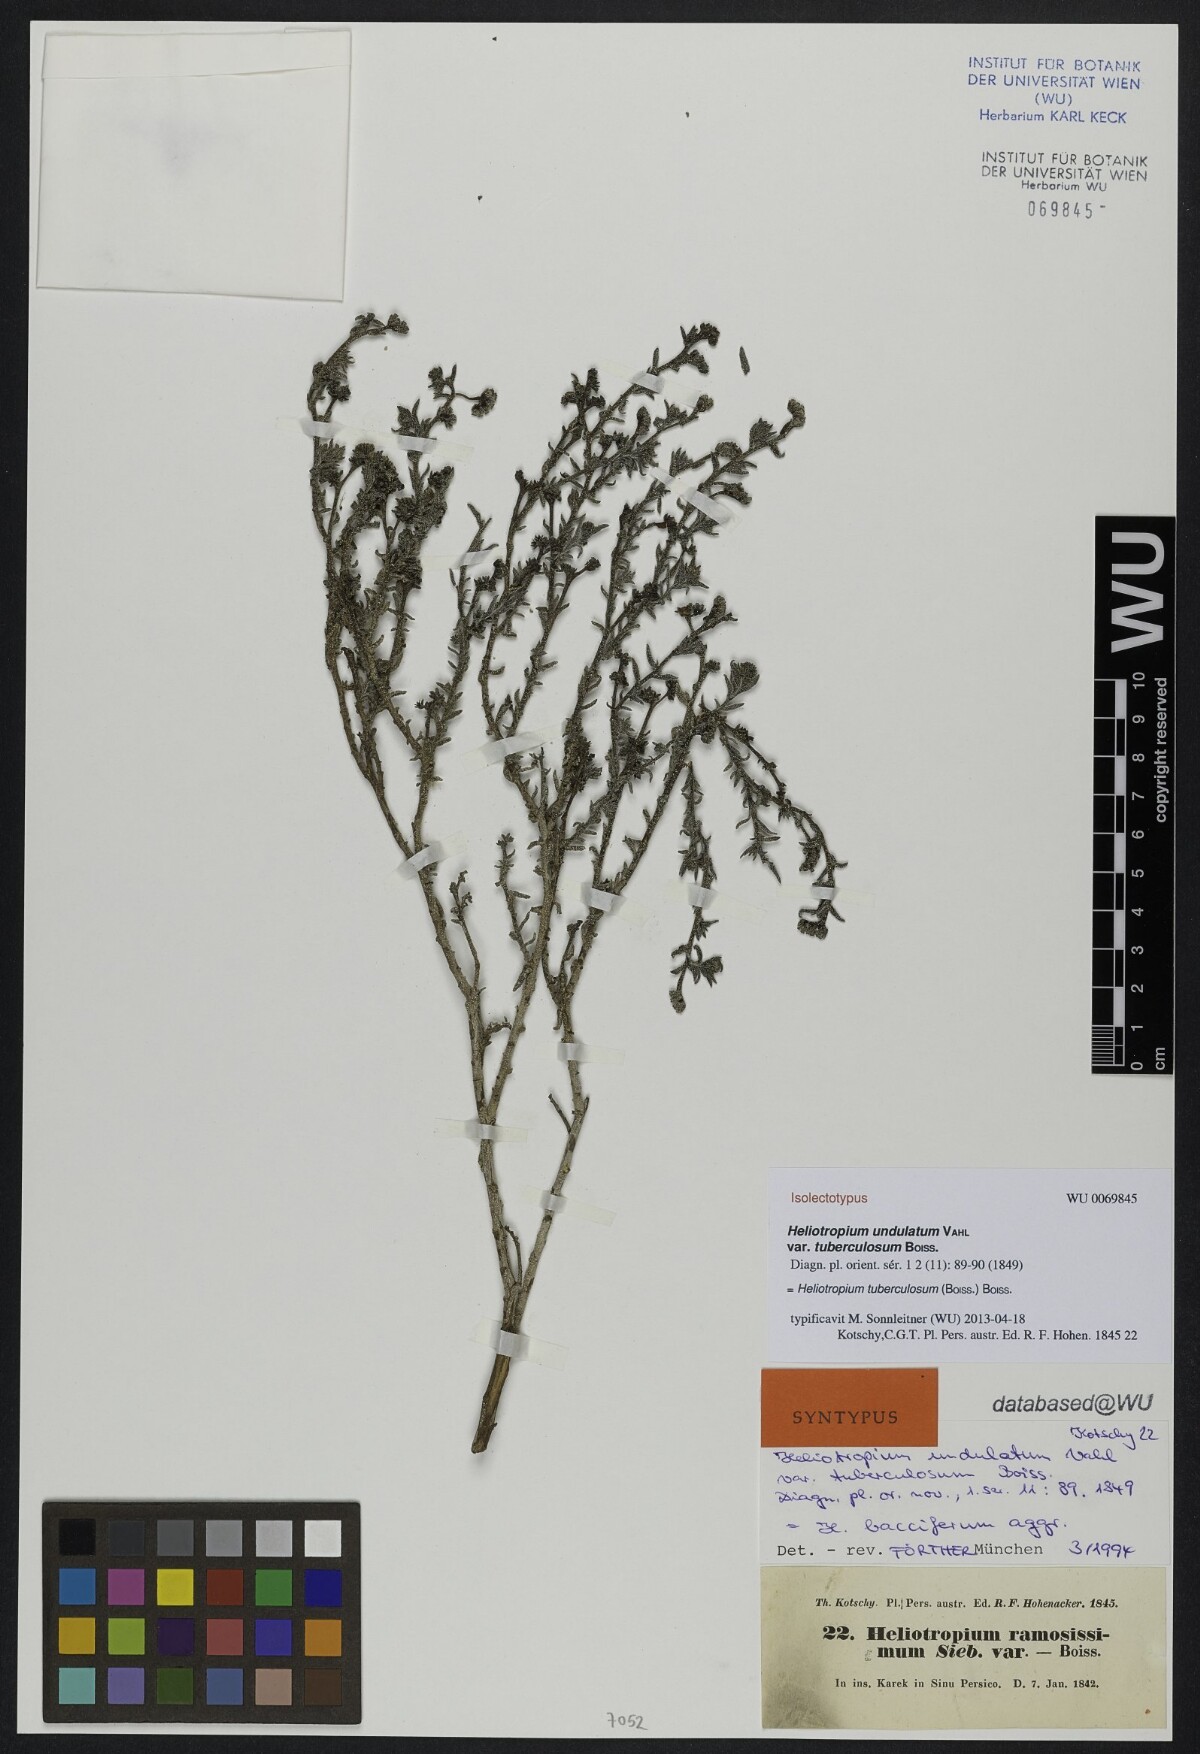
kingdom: Plantae
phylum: Tracheophyta
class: Magnoliopsida
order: Boraginales
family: Heliotropiaceae
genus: Heliotropium
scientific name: Heliotropium bacciferum
